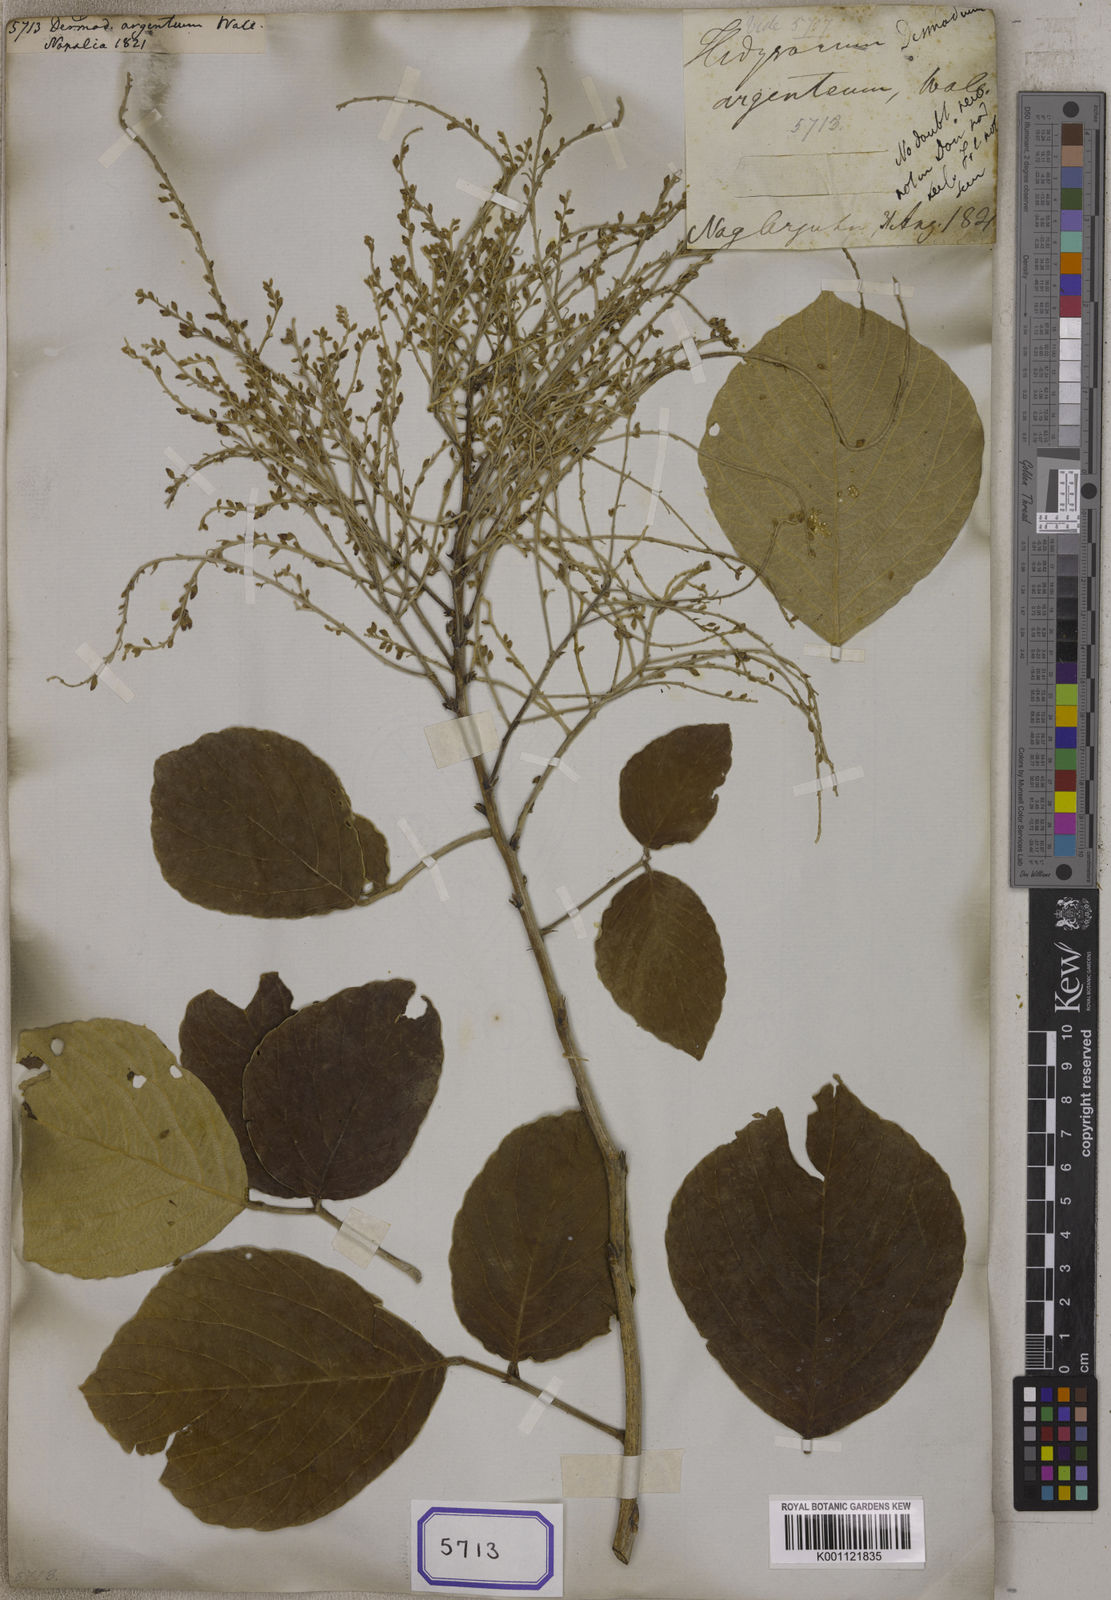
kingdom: Plantae
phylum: Tracheophyta
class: Magnoliopsida
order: Fabales
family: Fabaceae
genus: Desmodium
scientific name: Desmodium
